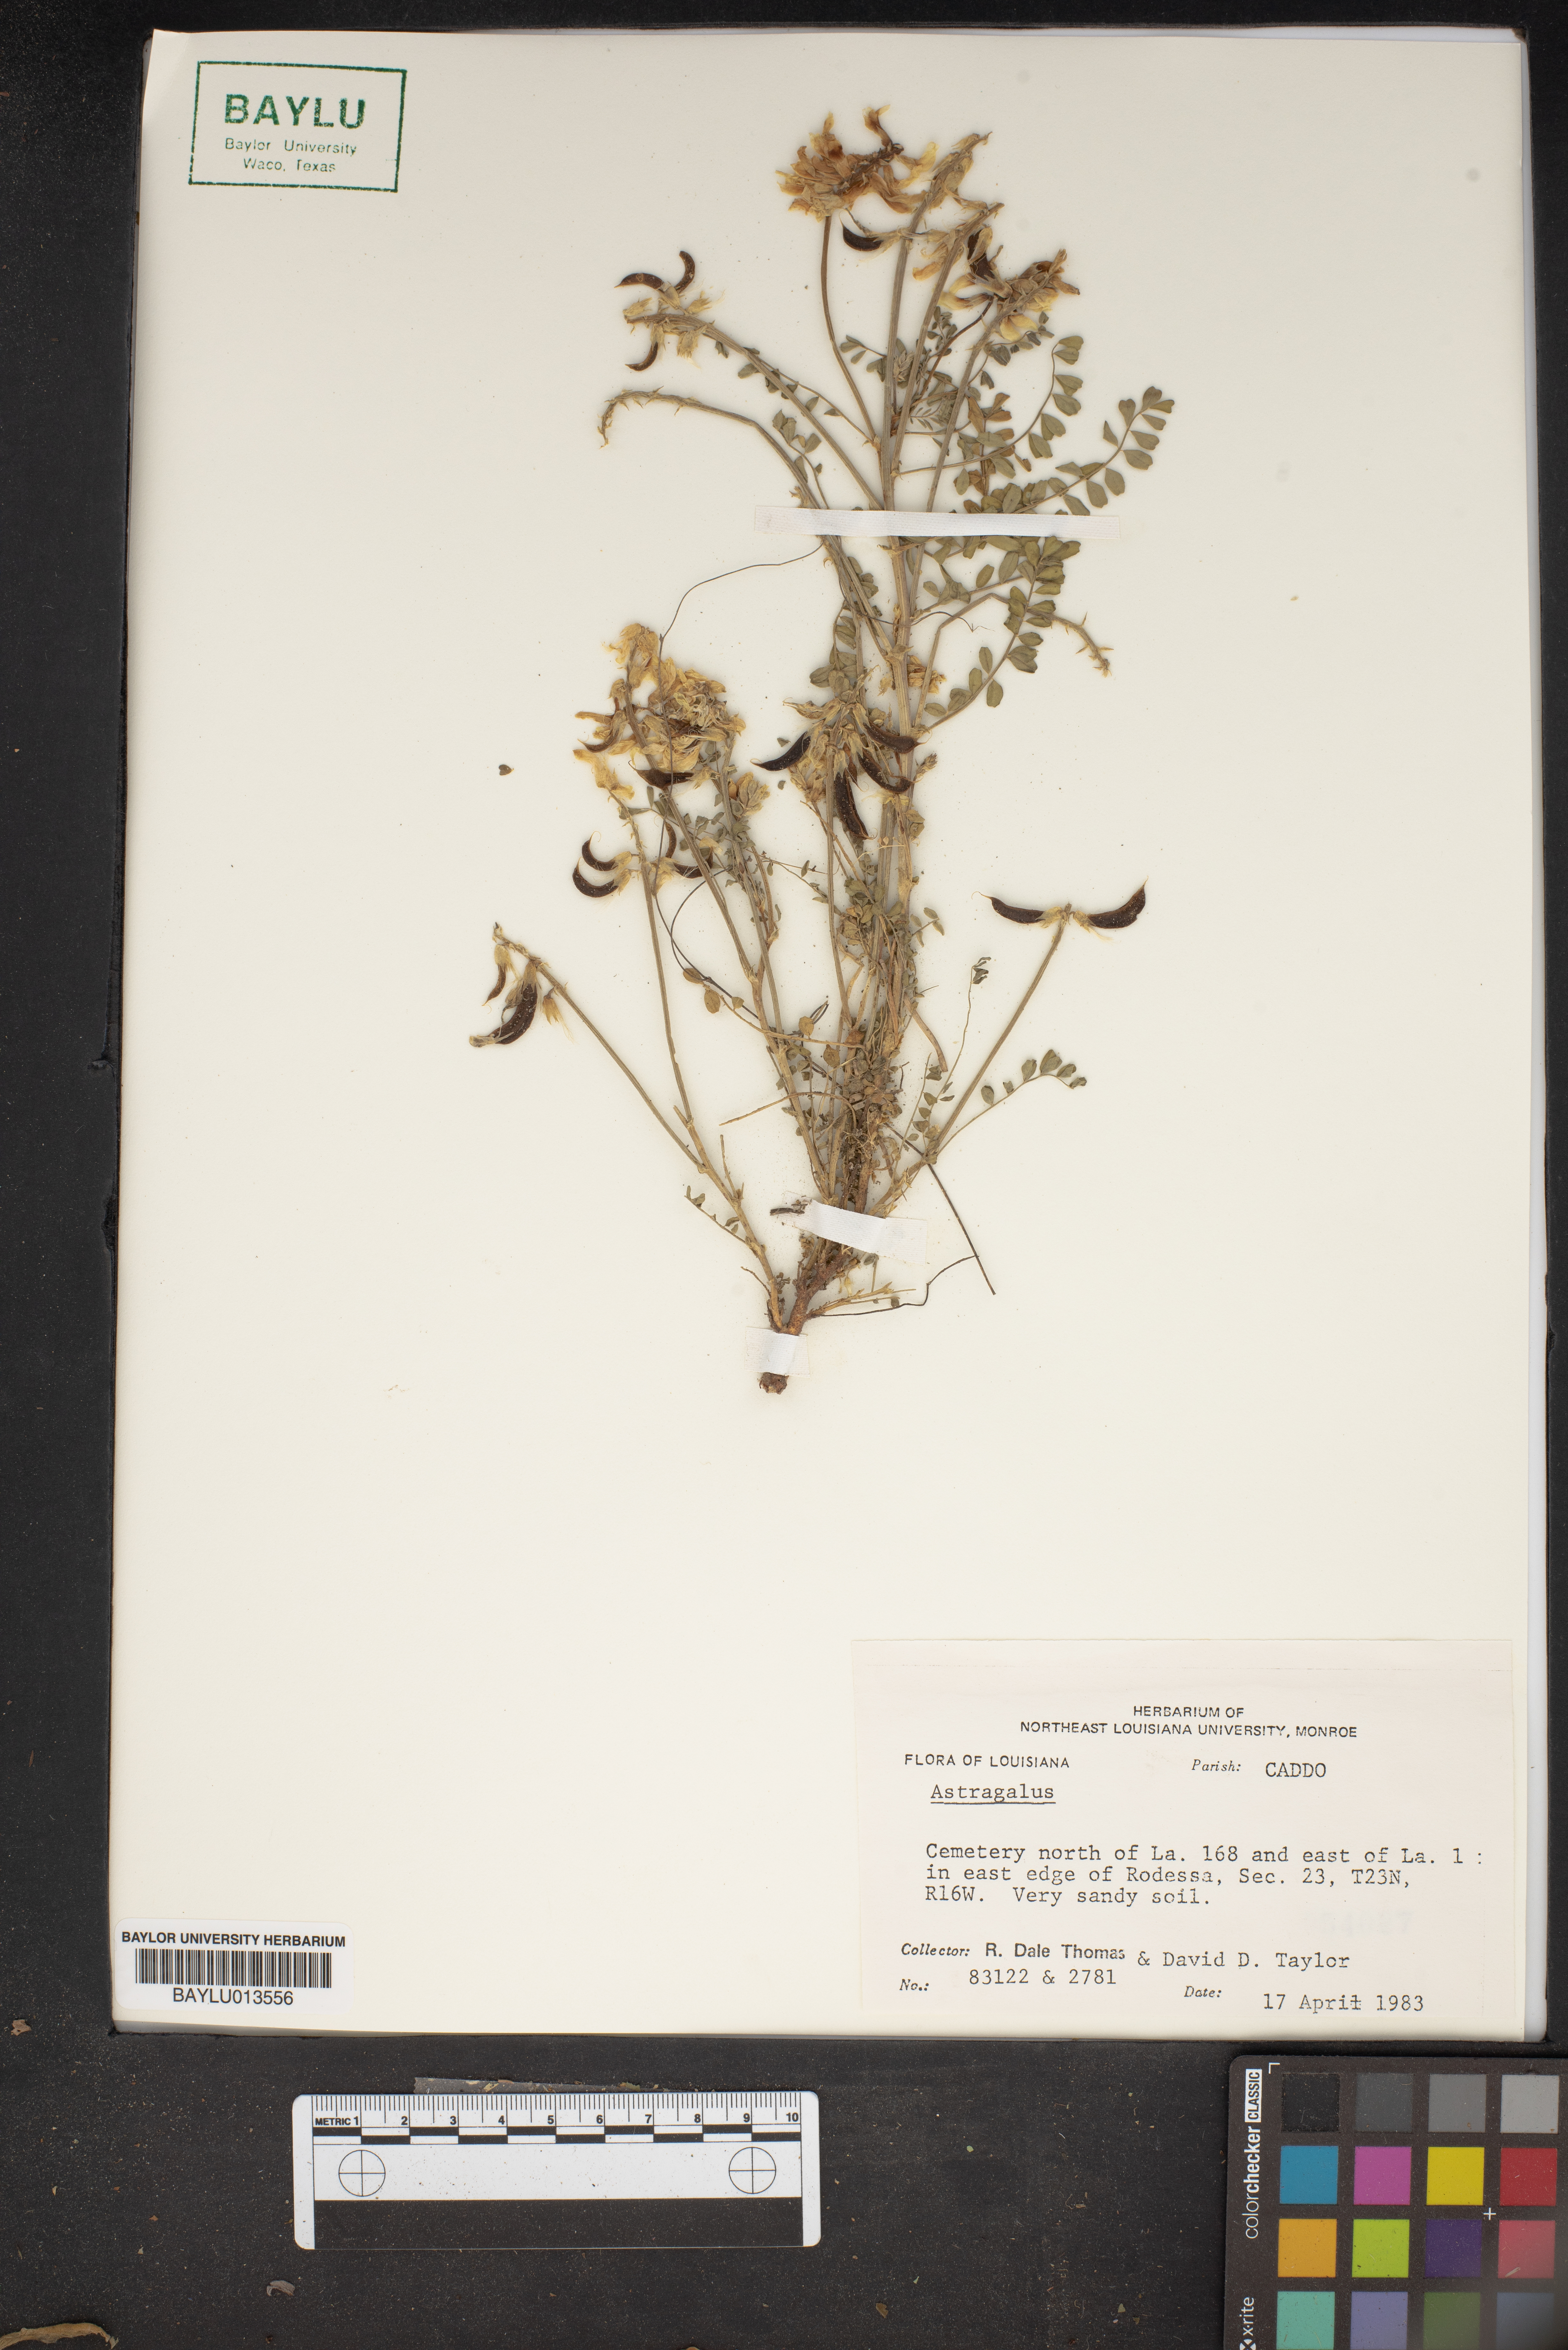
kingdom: Plantae
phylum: Tracheophyta
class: Magnoliopsida
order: Fabales
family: Fabaceae
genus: Astragalus
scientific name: Astragalus
